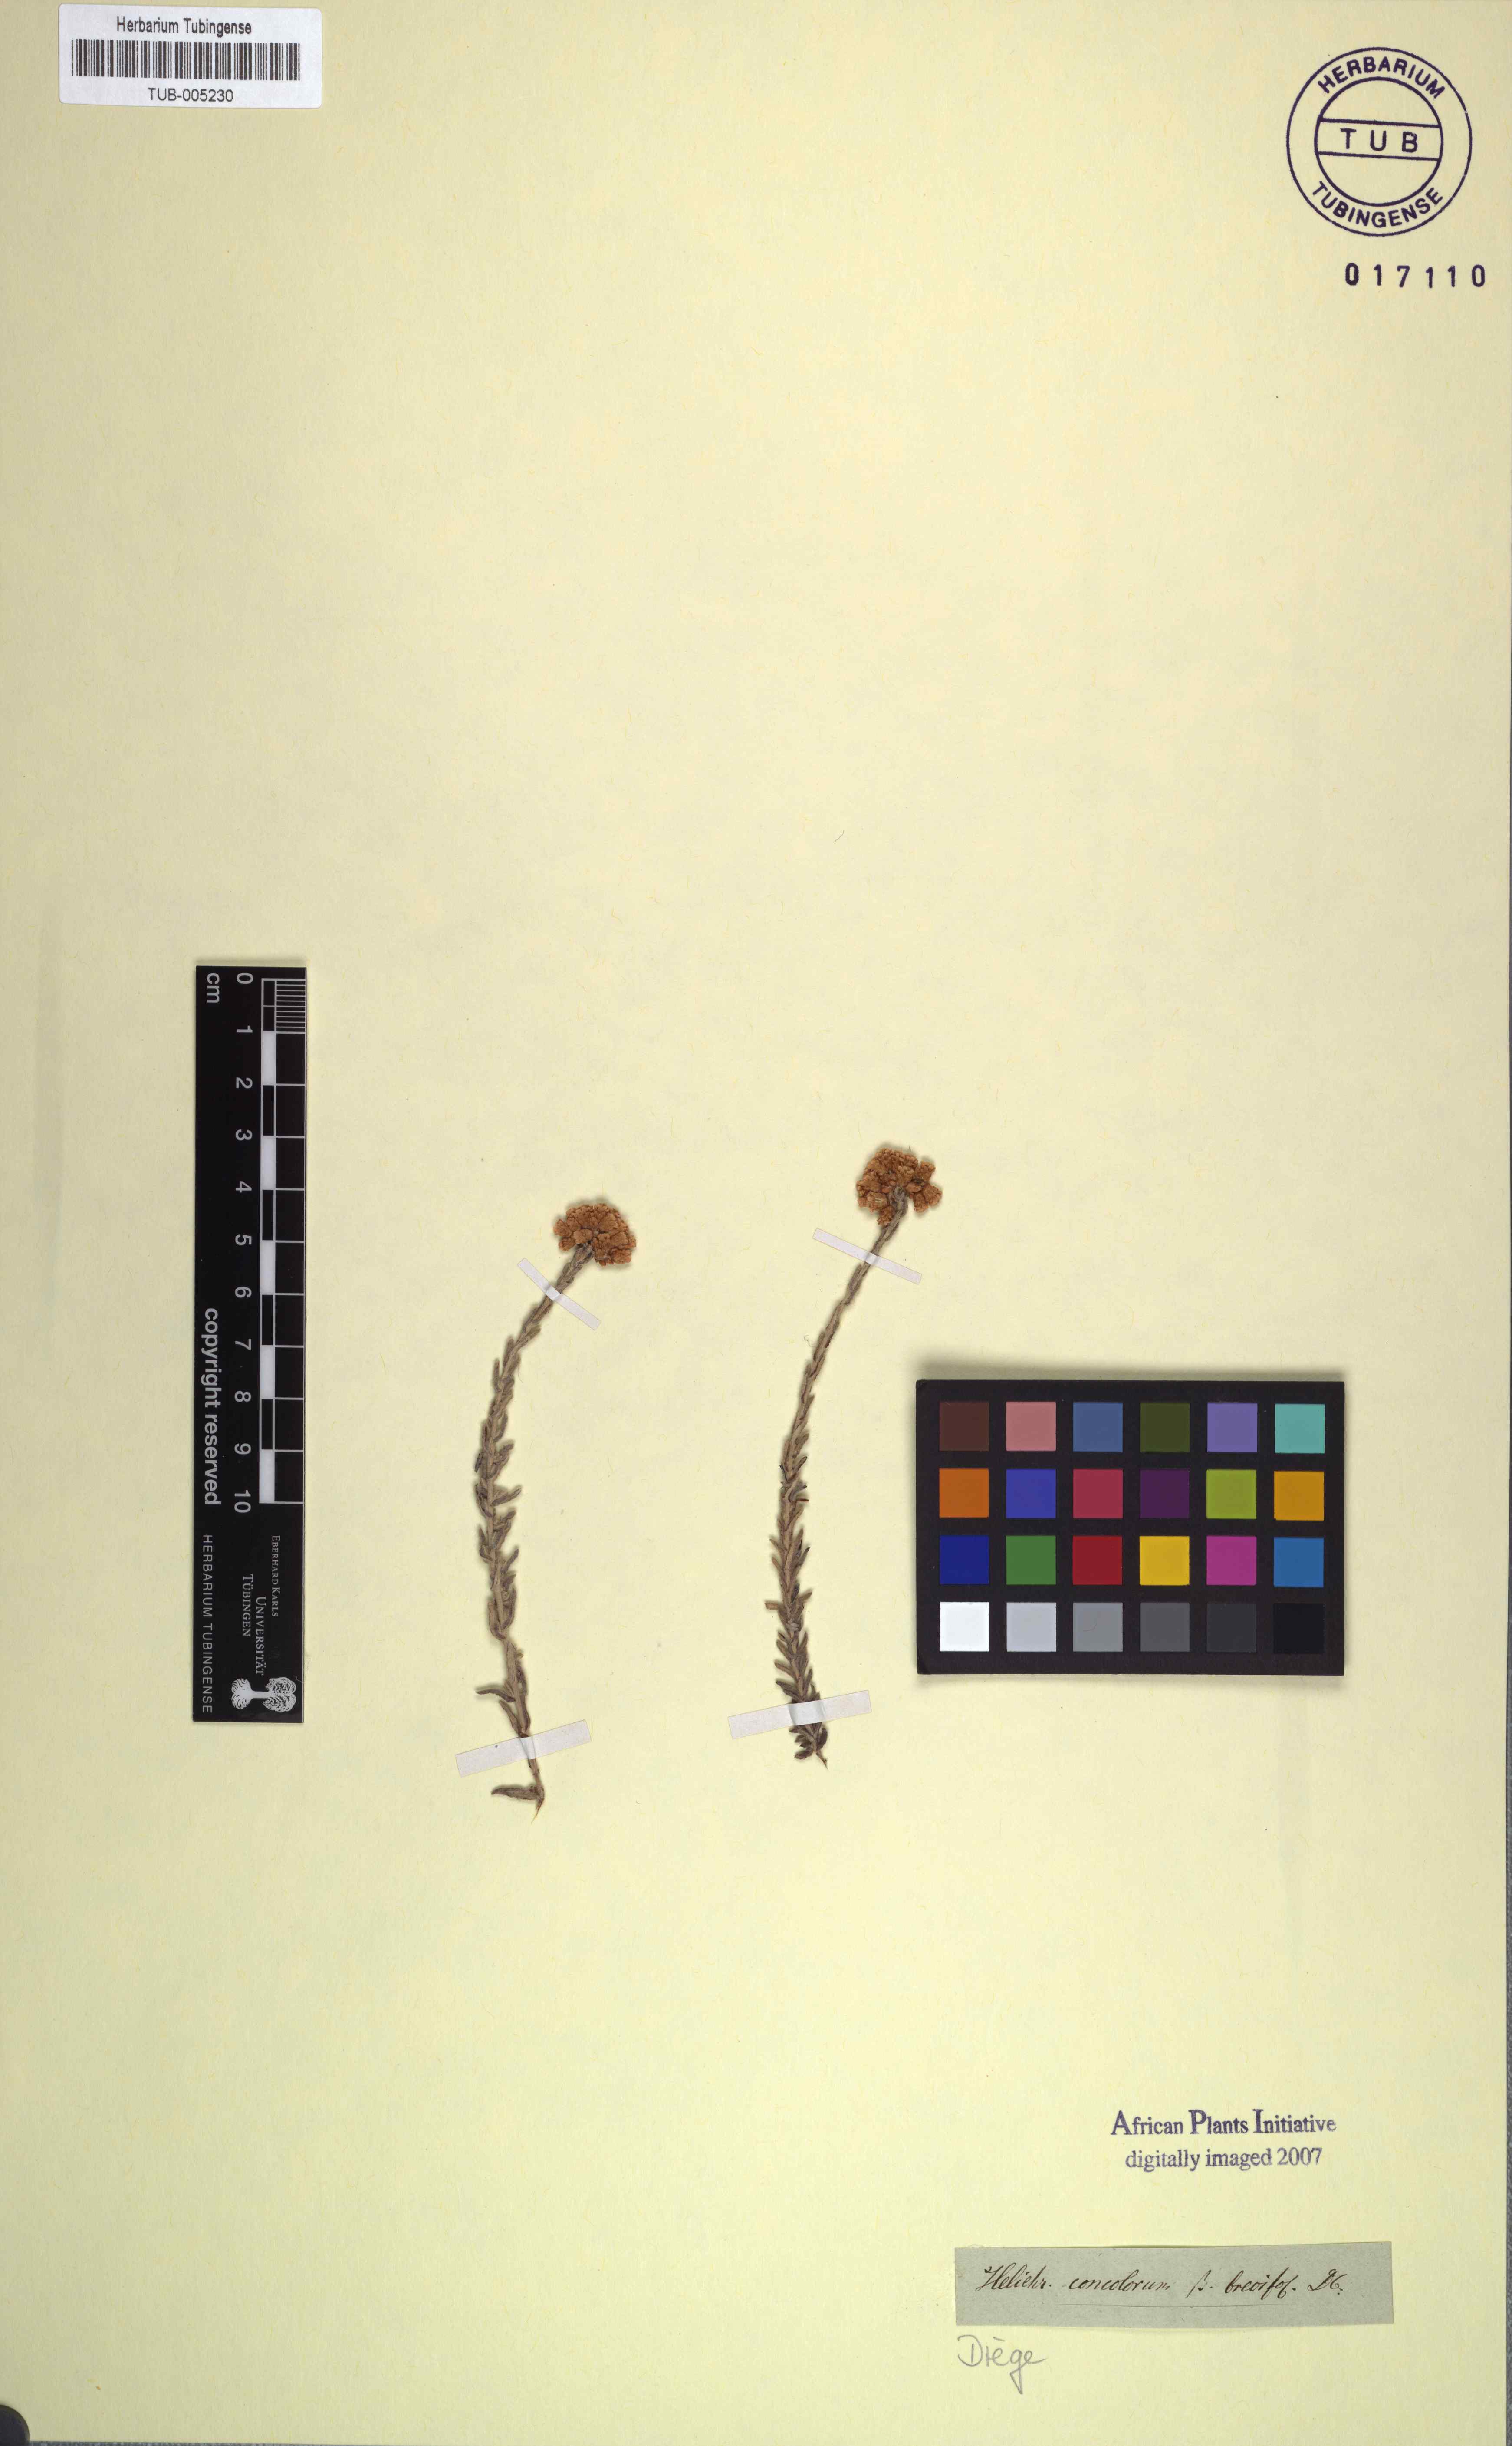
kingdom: Plantae
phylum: Tracheophyta
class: Magnoliopsida
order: Asterales
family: Asteraceae
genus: Helichrysum
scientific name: Helichrysum rosum
